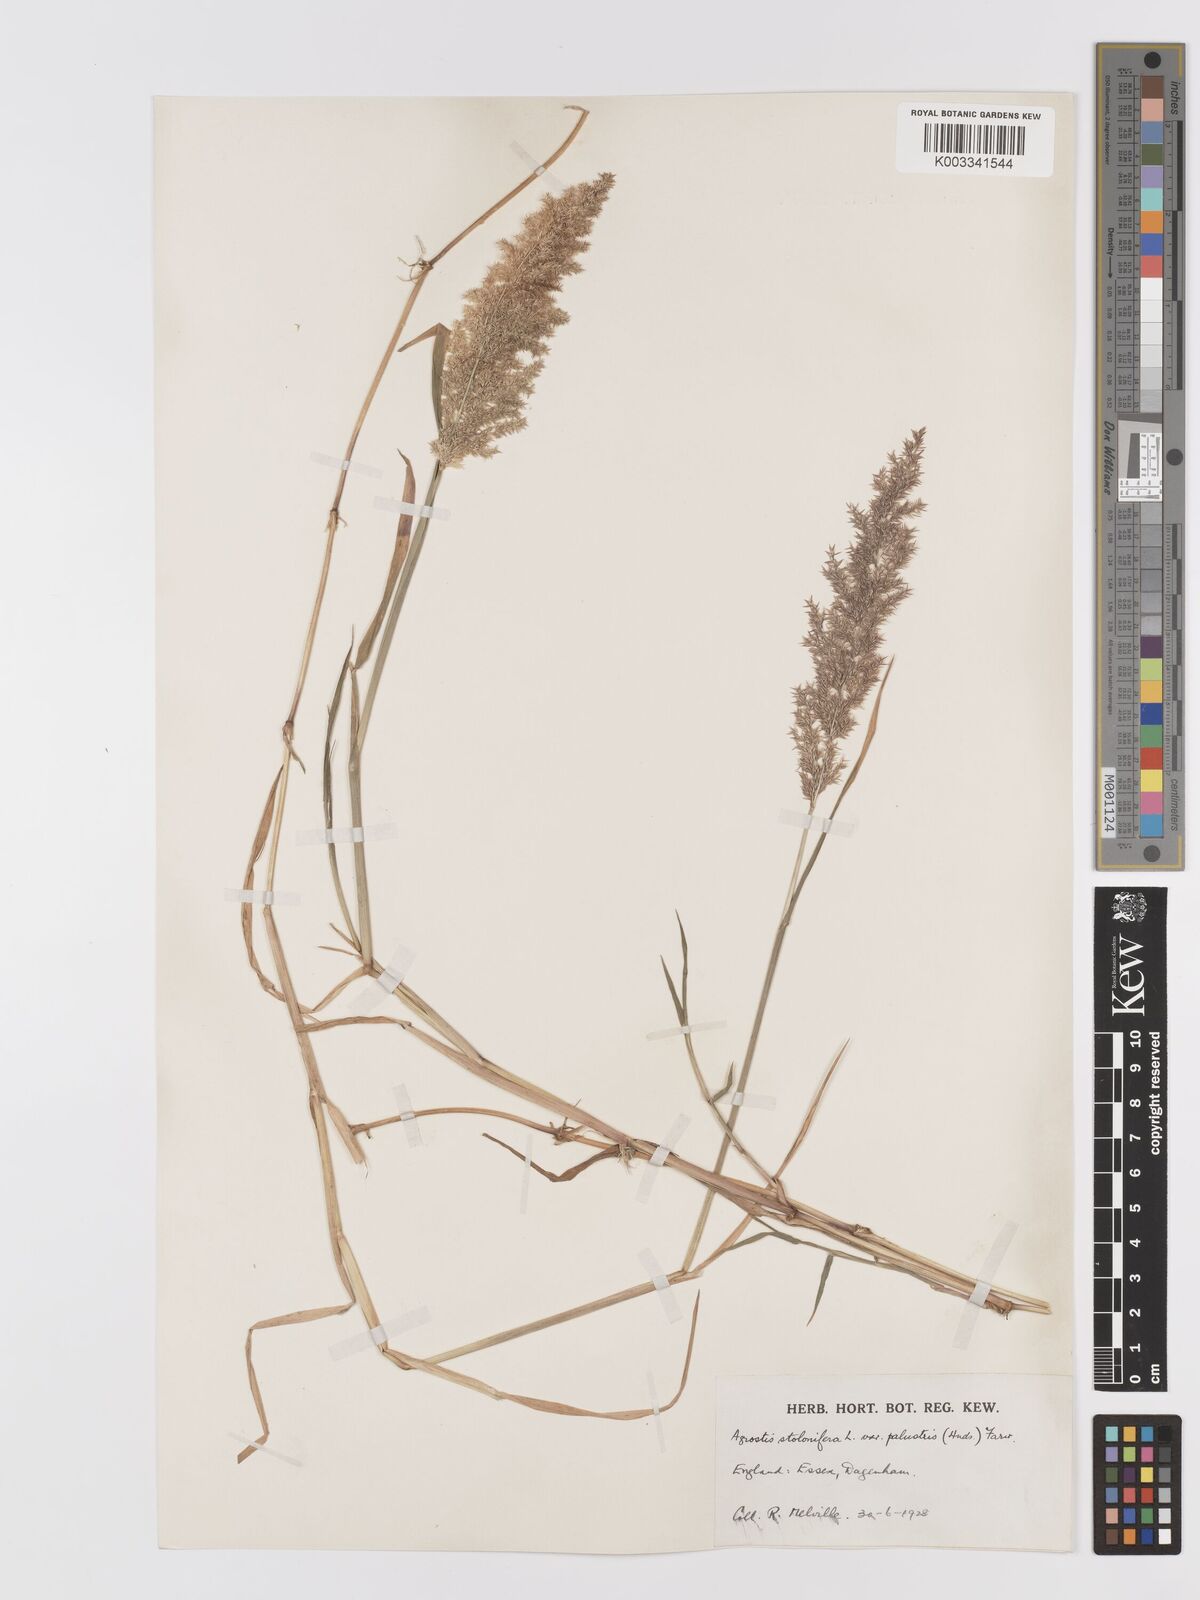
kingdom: Plantae
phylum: Tracheophyta
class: Liliopsida
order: Poales
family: Poaceae
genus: Agrostis
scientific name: Agrostis stolonifera
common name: Creeping bentgrass
